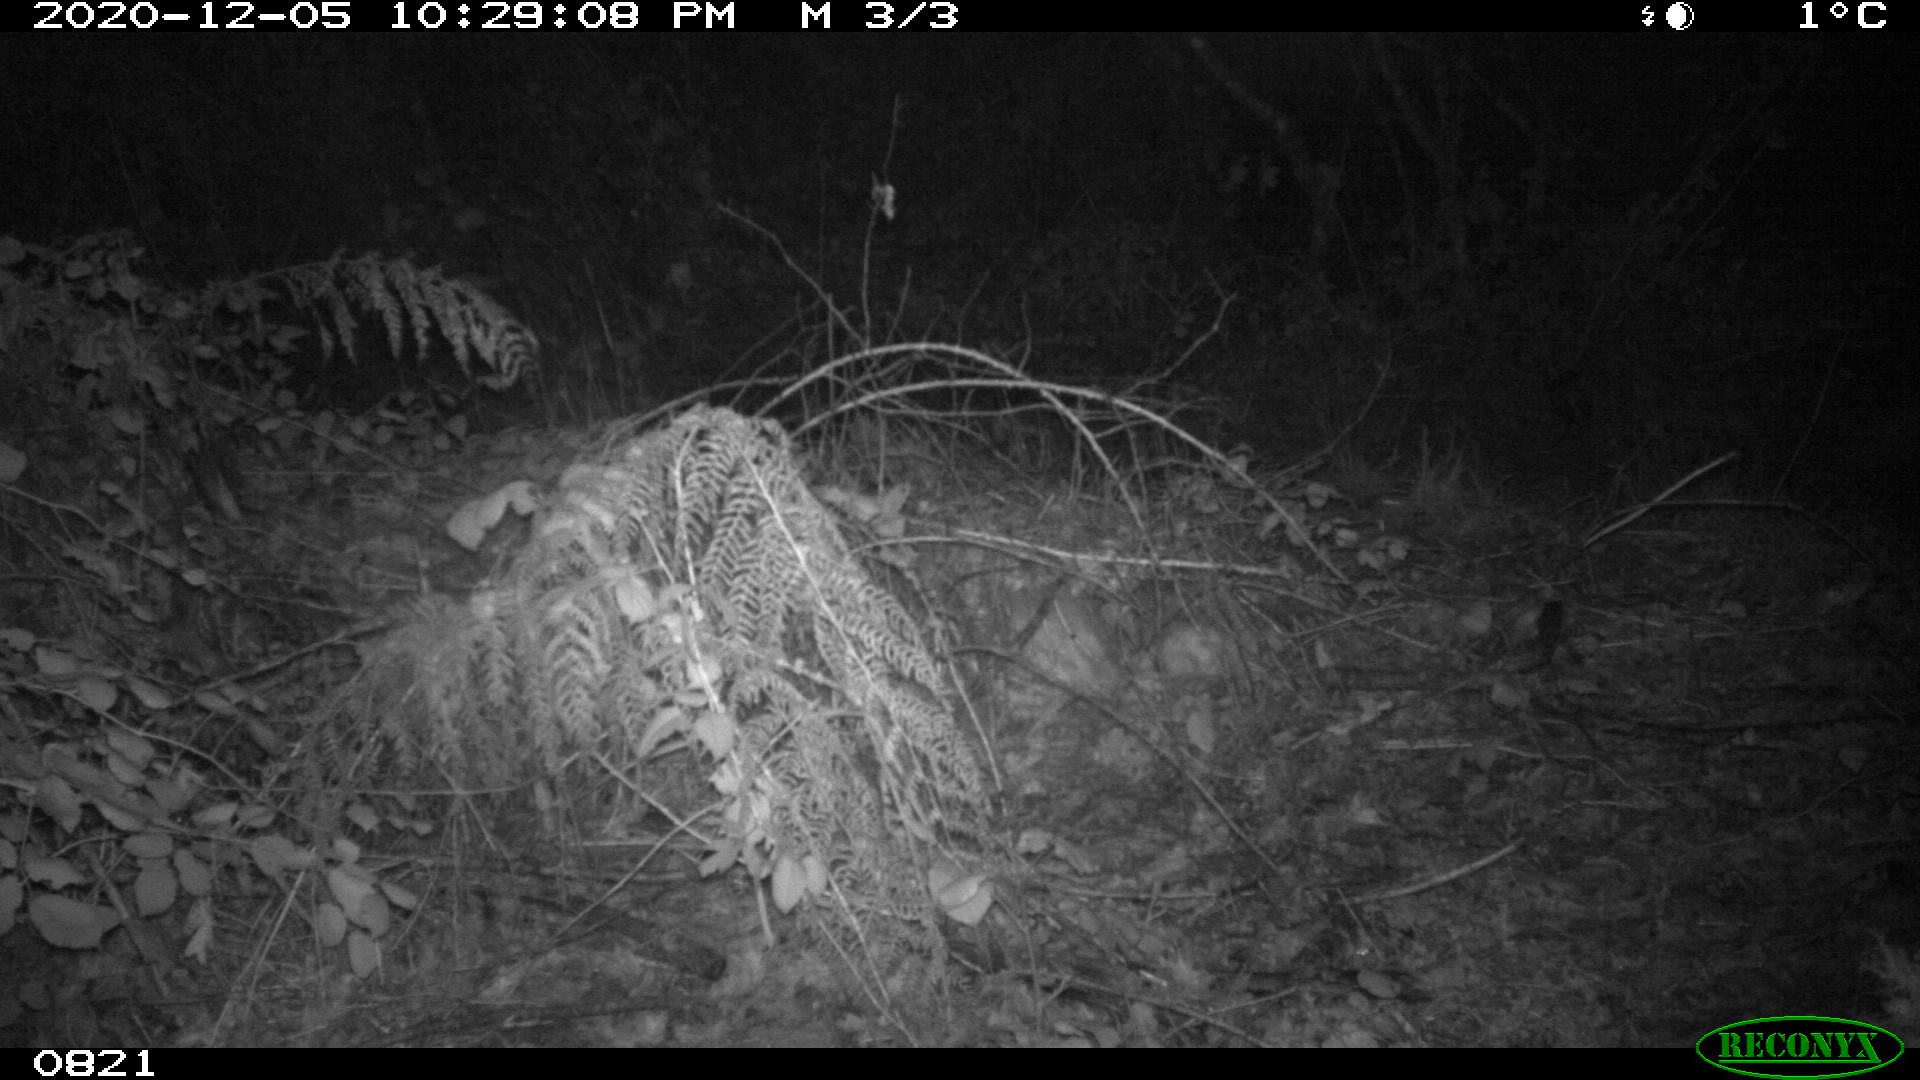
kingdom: Animalia
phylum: Chordata
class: Mammalia
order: Artiodactyla
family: Cervidae
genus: Capreolus
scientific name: Capreolus capreolus
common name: Western roe deer
